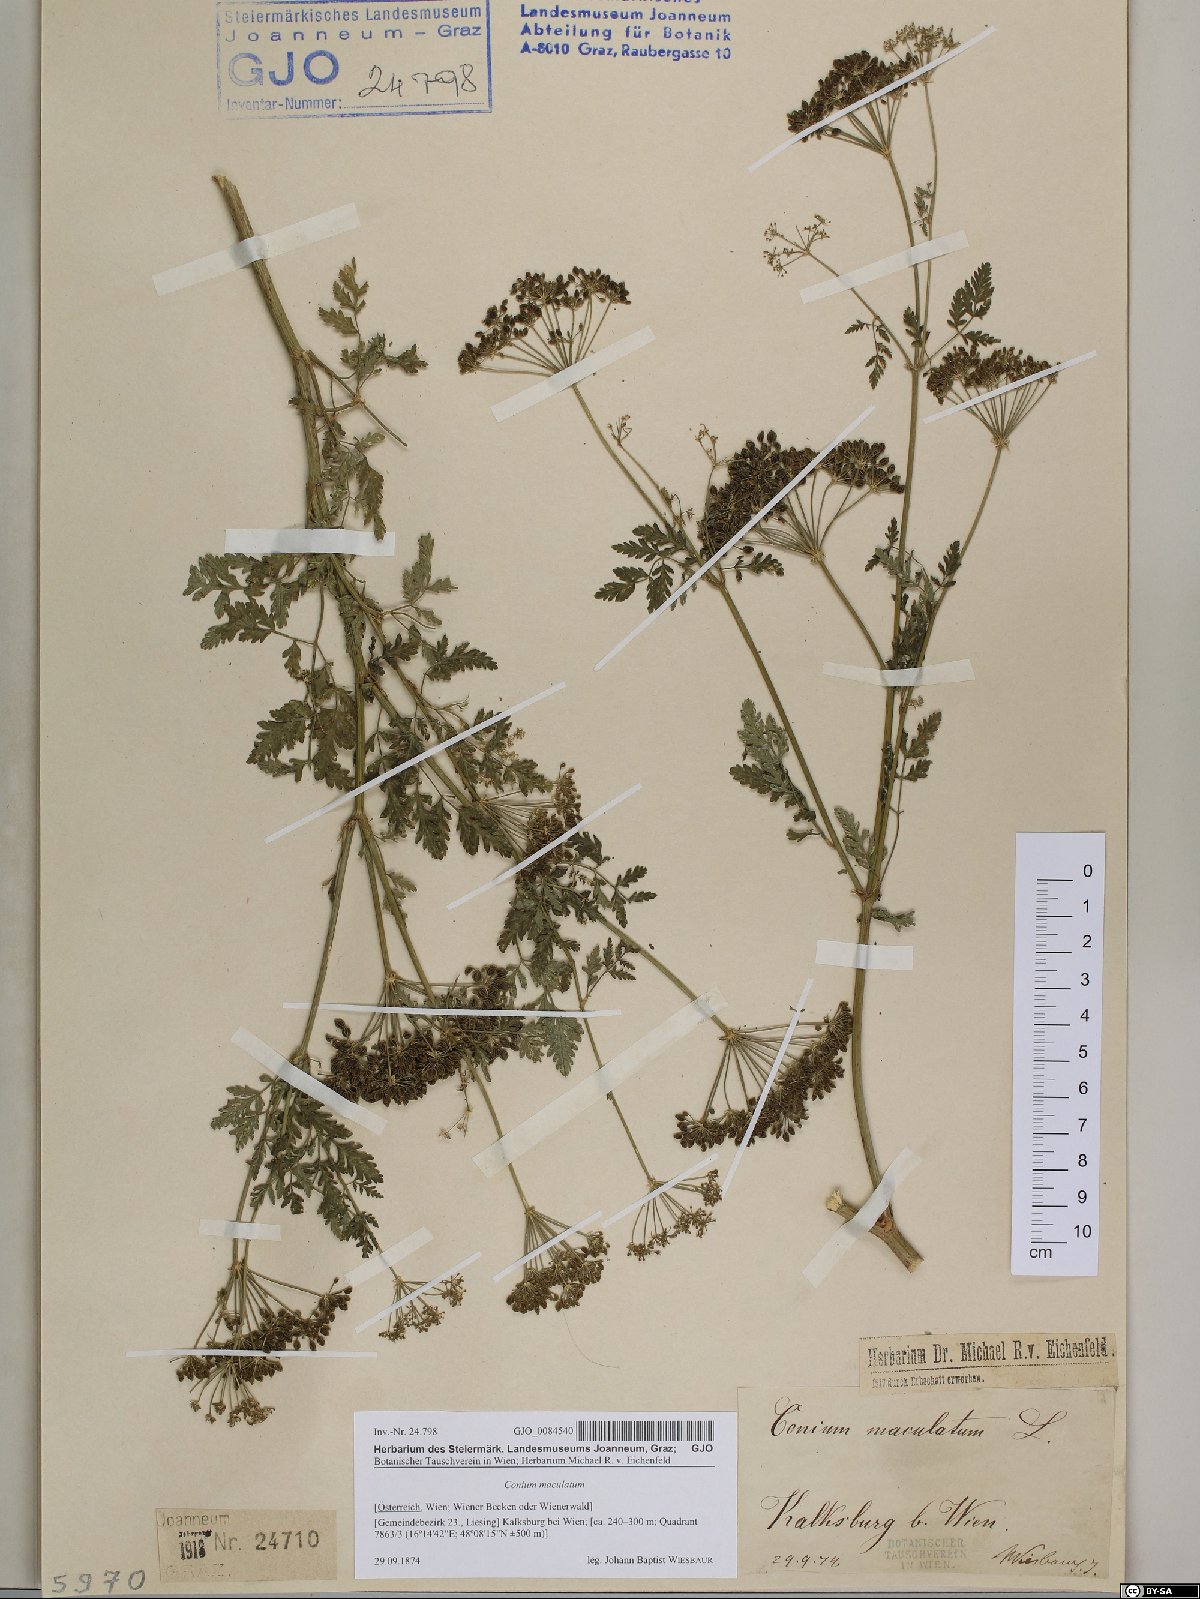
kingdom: Plantae
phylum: Tracheophyta
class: Magnoliopsida
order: Apiales
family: Apiaceae
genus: Conium
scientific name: Conium maculatum
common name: Hemlock
